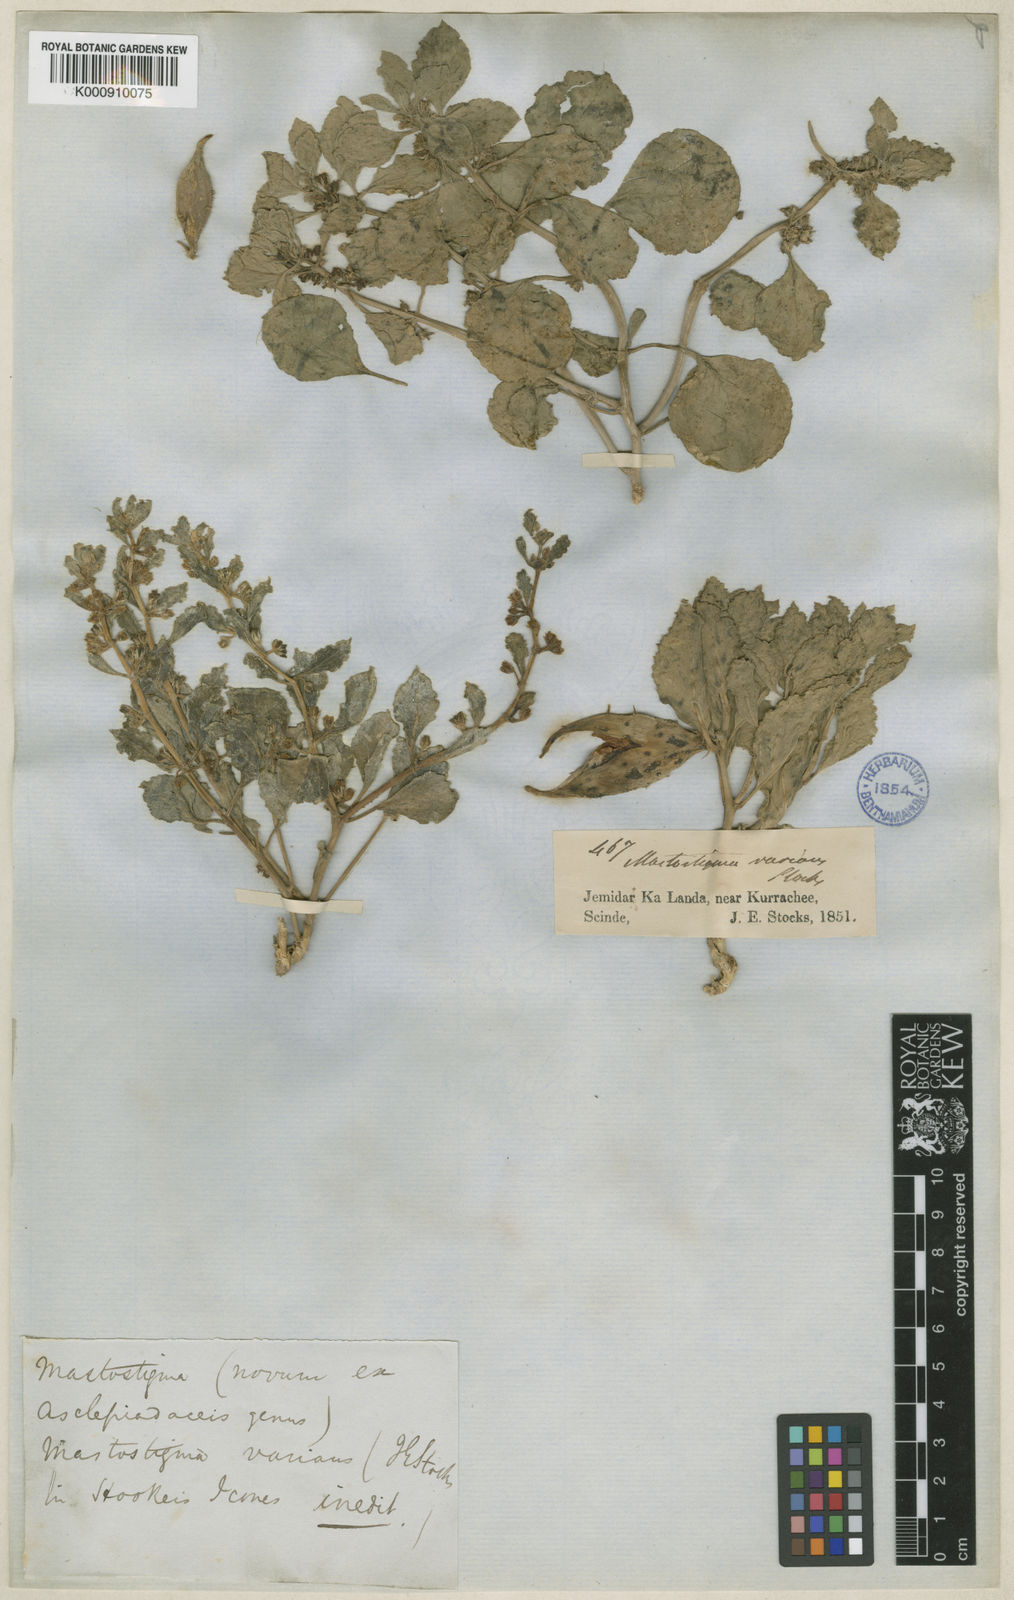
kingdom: Plantae
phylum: Tracheophyta
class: Magnoliopsida
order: Gentianales
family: Apocynaceae
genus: Cynanchum
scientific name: Cynanchum varians
